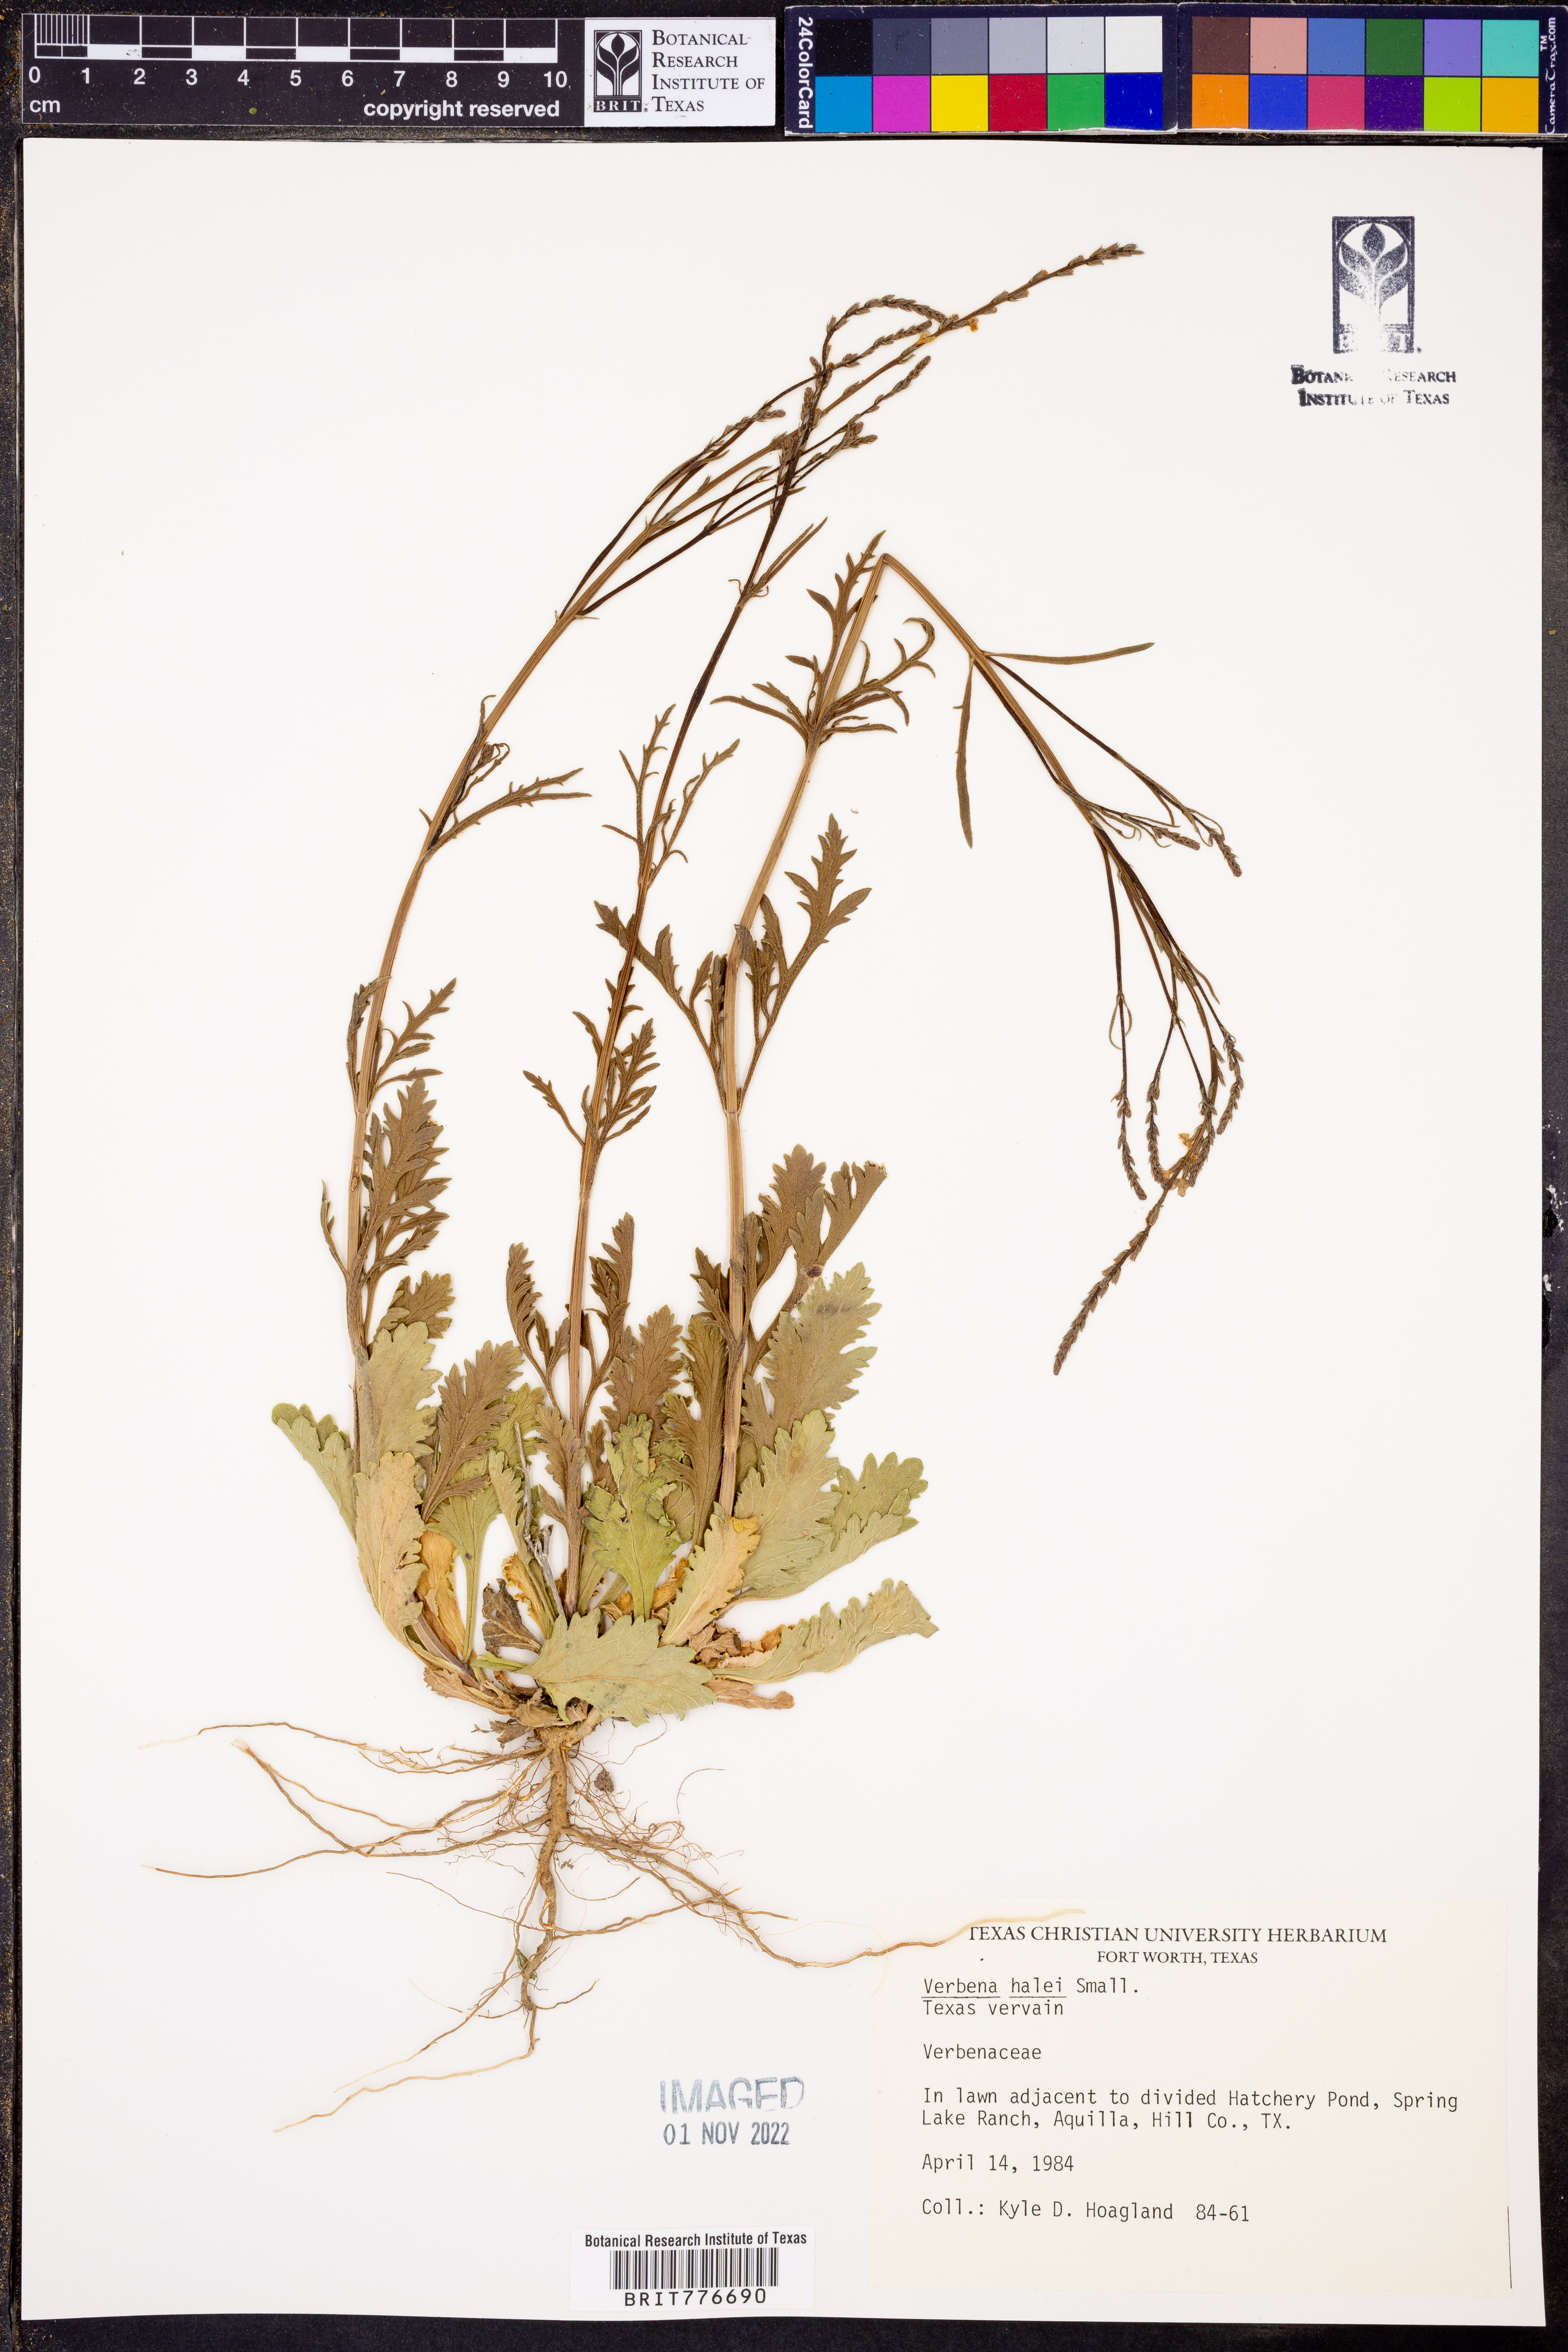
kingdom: Plantae
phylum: Tracheophyta
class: Magnoliopsida
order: Lamiales
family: Verbenaceae
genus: Verbena
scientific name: Verbena halei
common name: Texas vervain
